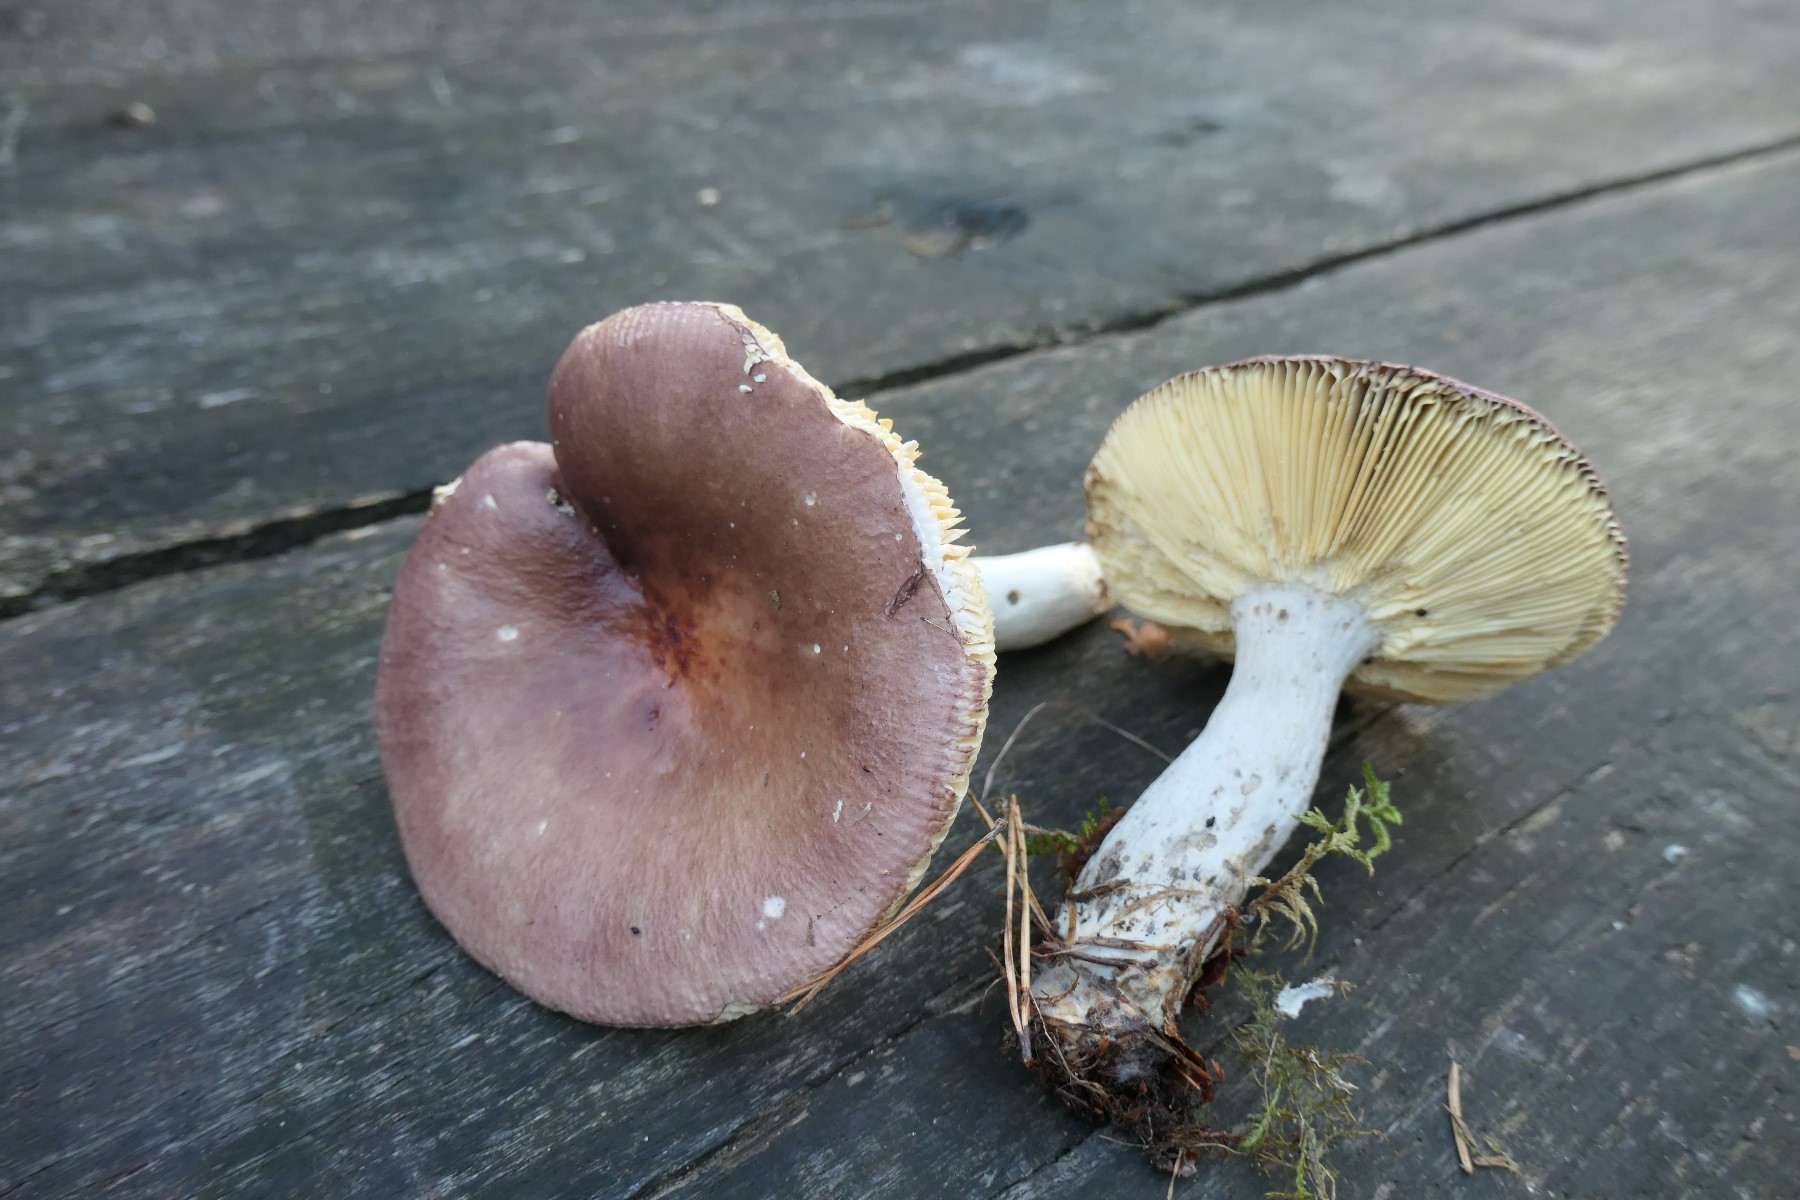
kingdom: Fungi
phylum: Basidiomycota
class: Agaricomycetes
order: Russulales
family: Russulaceae
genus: Russula
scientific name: Russula vinosa
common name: vinrød skørhat
